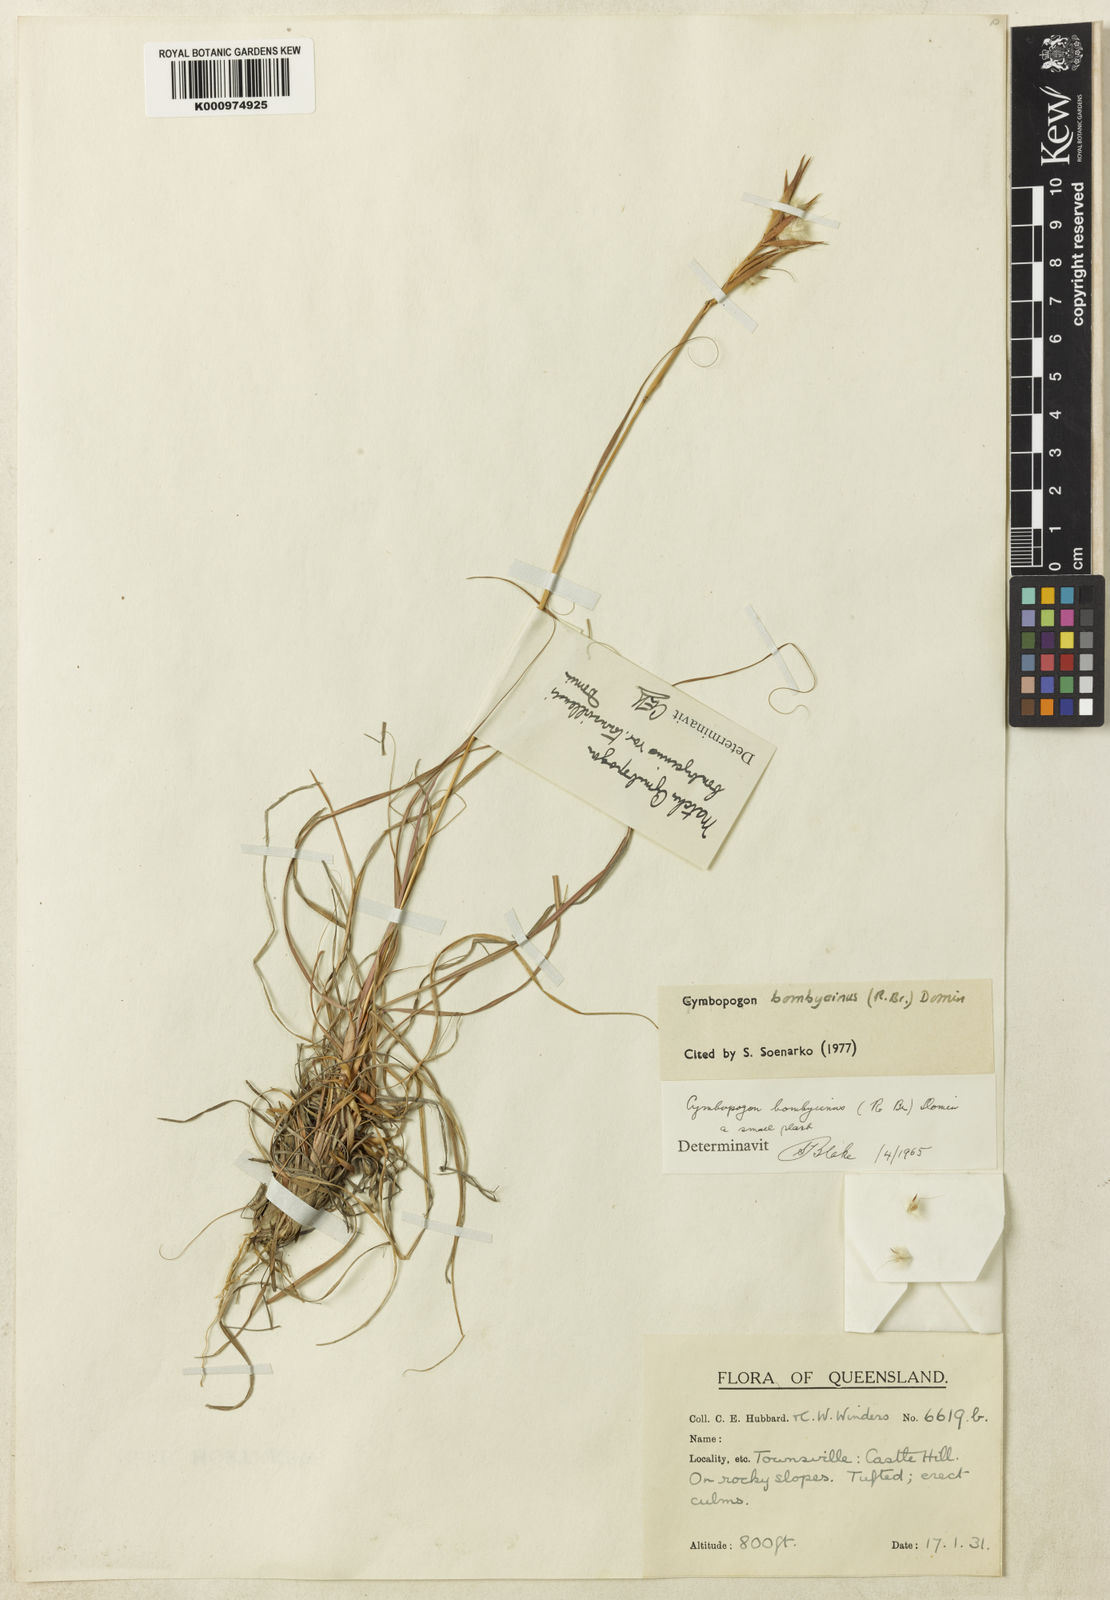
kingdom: Plantae
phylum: Tracheophyta
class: Liliopsida
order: Poales
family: Poaceae
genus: Cymbopogon
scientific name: Cymbopogon bombycinus
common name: Citronella grass
